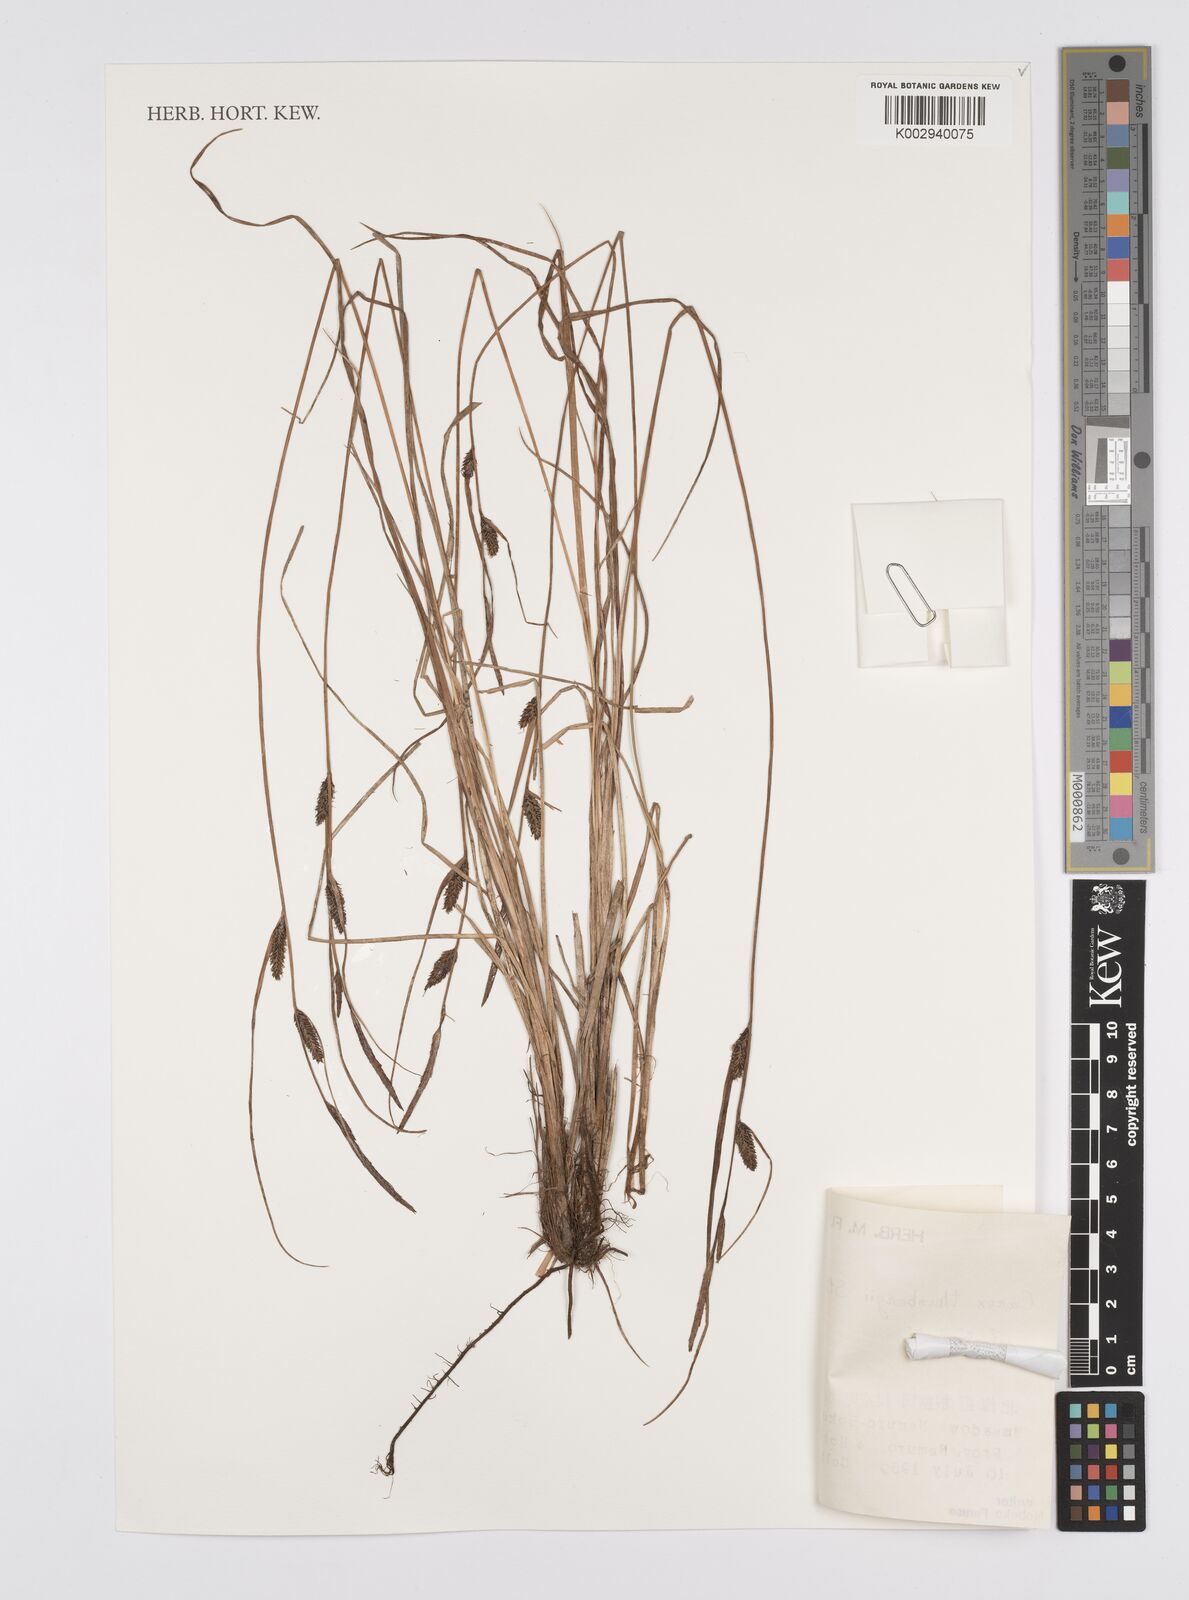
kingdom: Plantae
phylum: Tracheophyta
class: Liliopsida
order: Poales
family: Cyperaceae
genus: Carex
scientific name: Carex thunbergii
